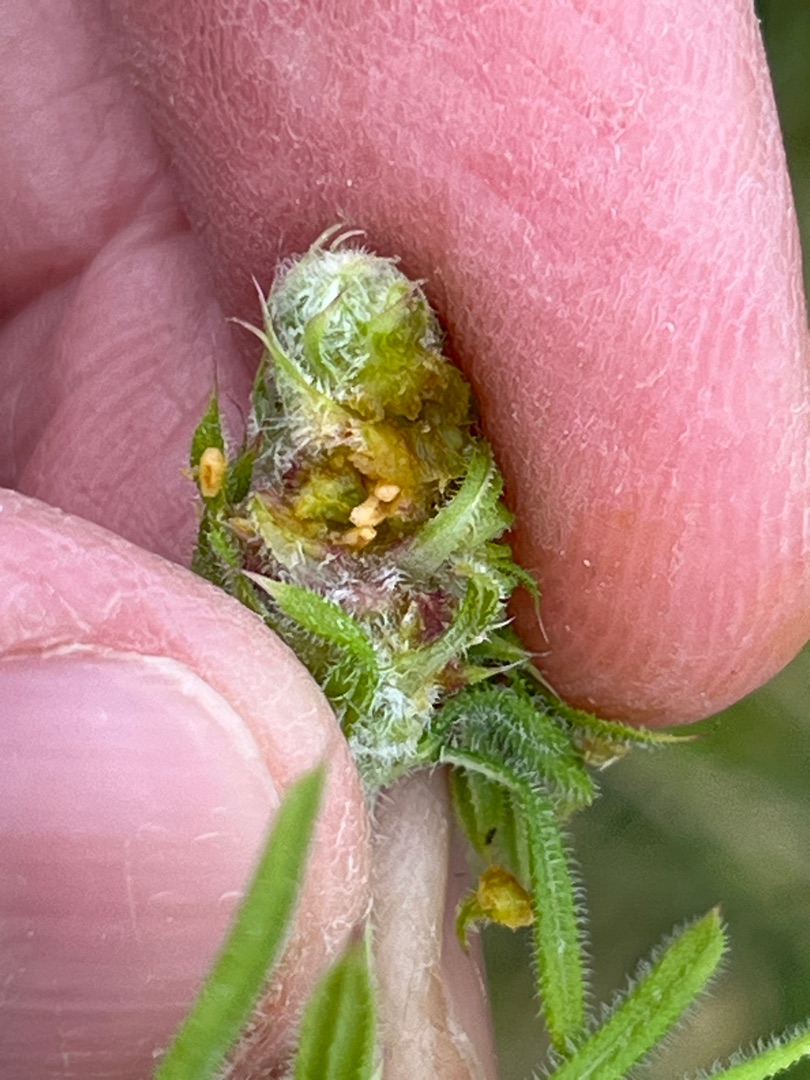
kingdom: Animalia
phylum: Arthropoda
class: Insecta
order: Diptera
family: Cecidomyiidae
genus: Dasineura
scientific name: Dasineura aparines
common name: Burresnerregalmyg
